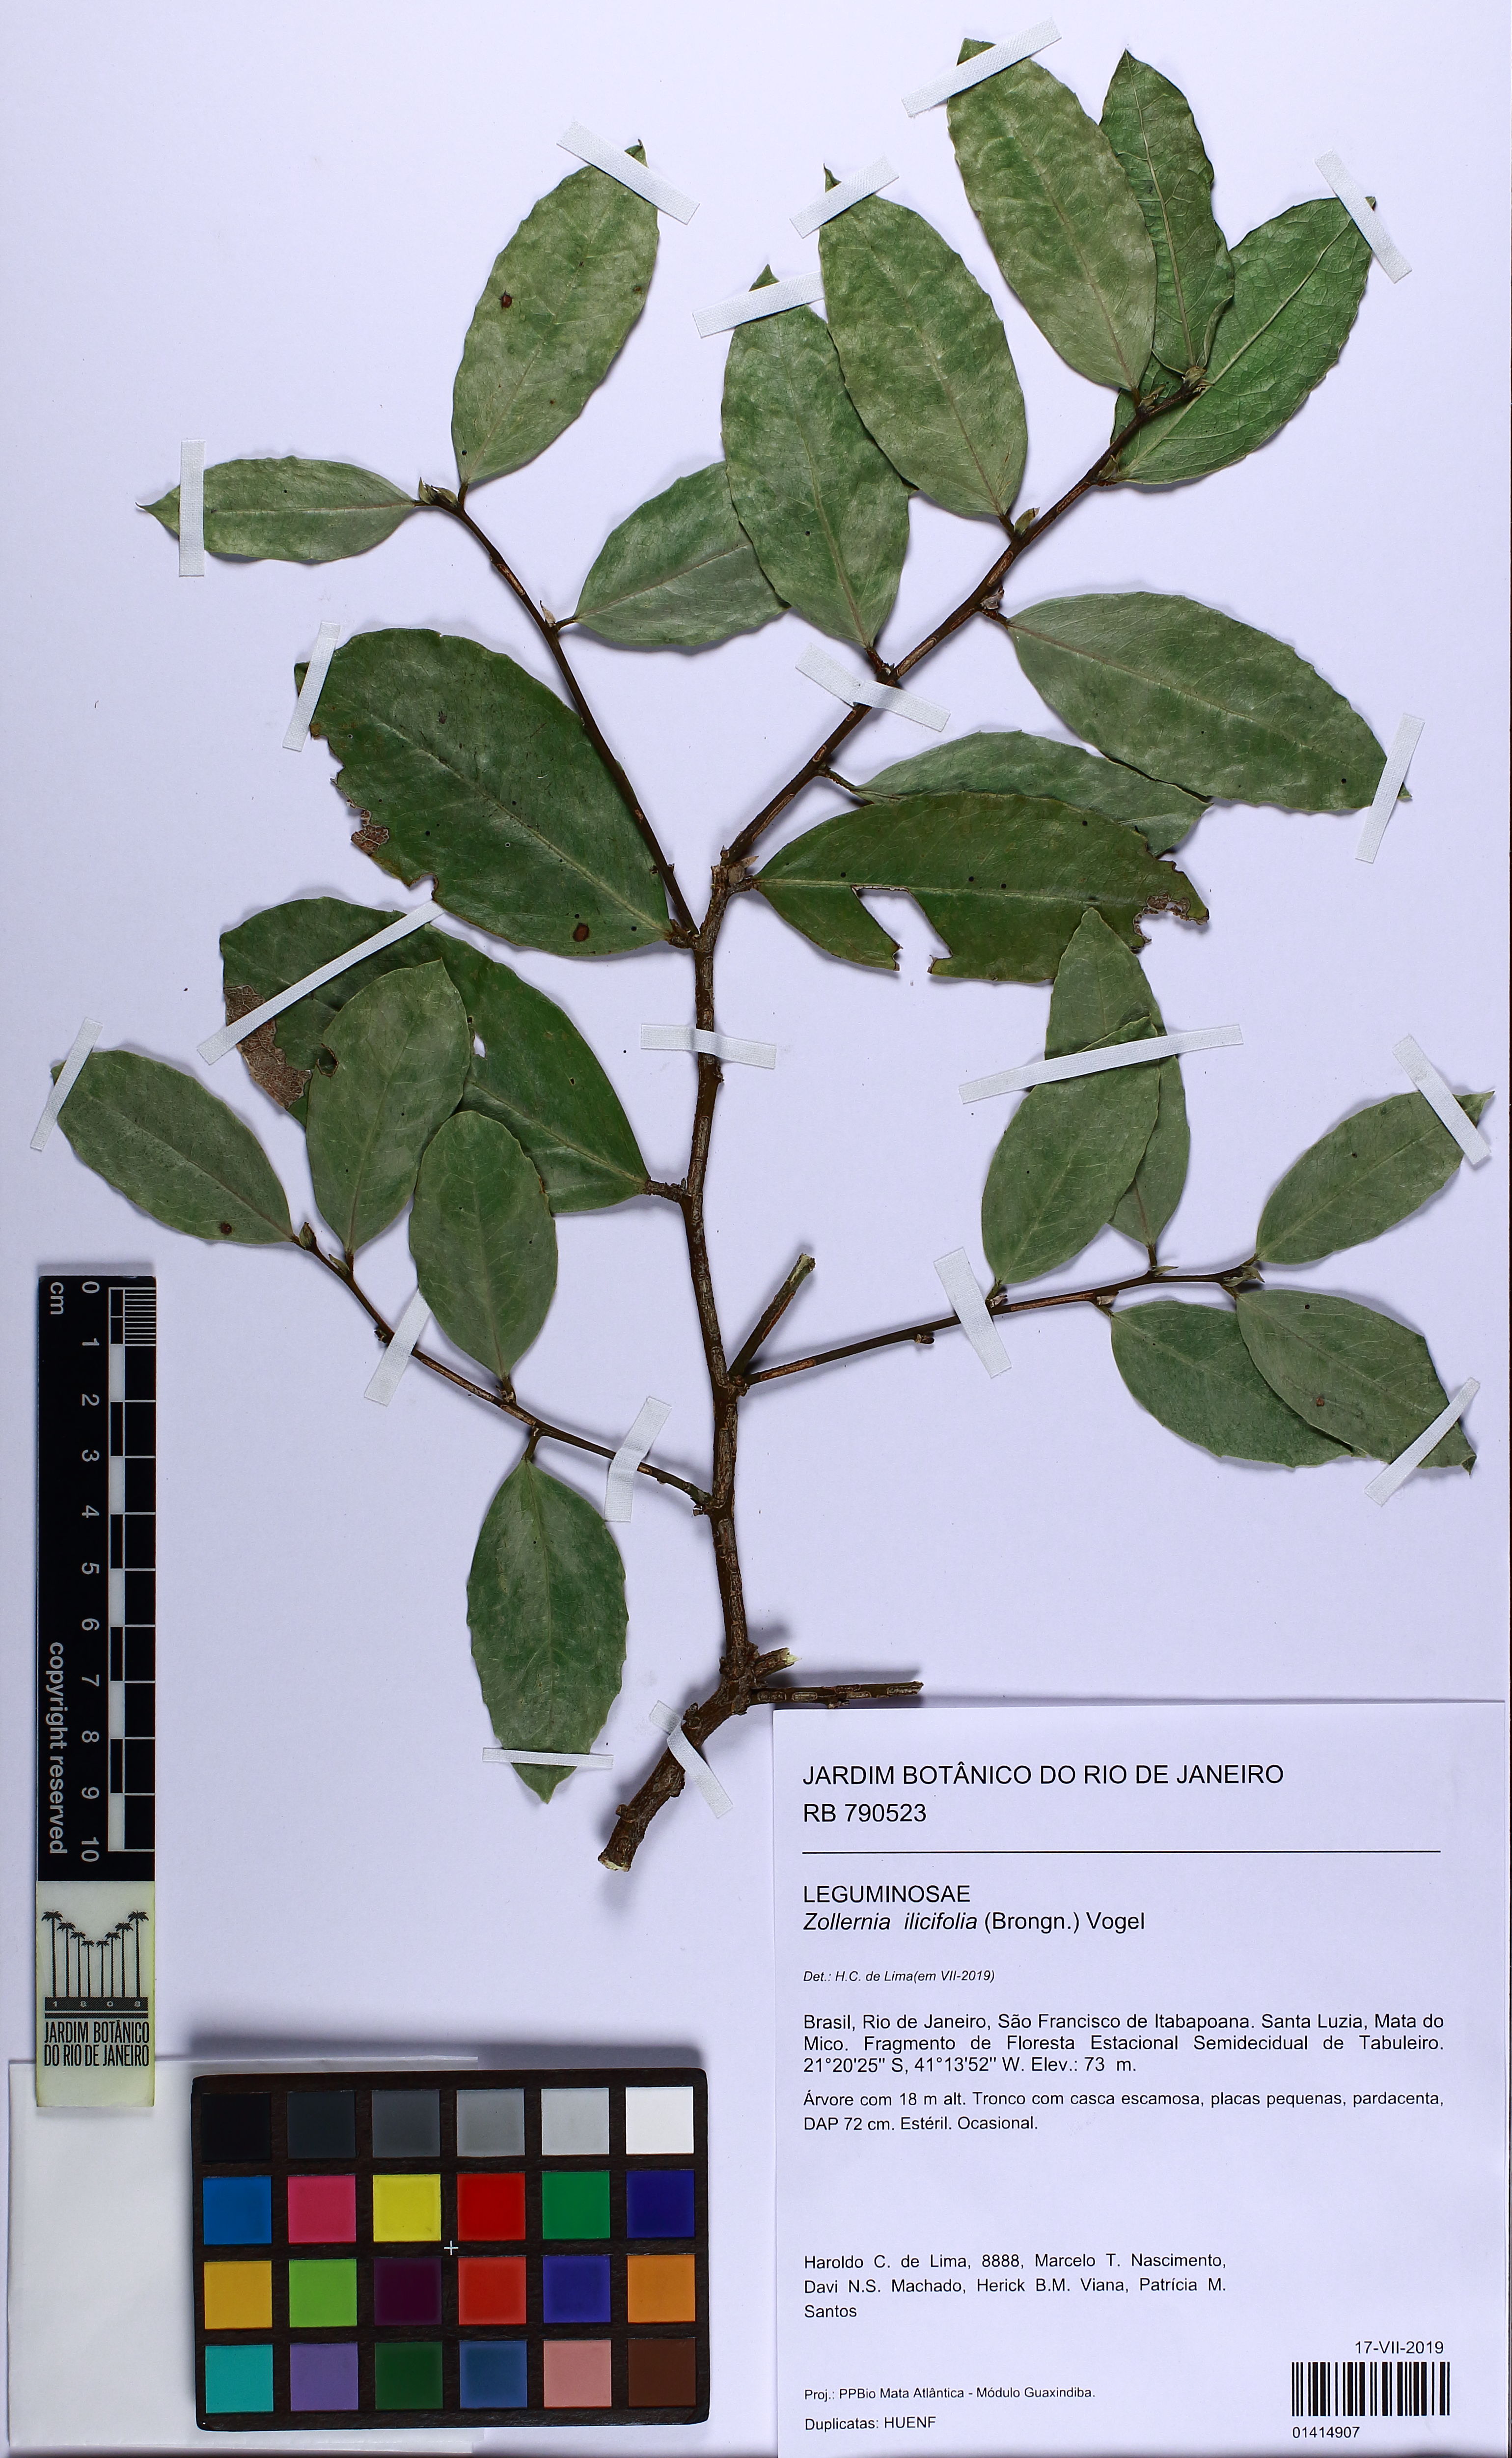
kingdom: Plantae
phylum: Tracheophyta
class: Magnoliopsida
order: Fabales
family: Fabaceae
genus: Zollernia
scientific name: Zollernia ilicifolia
